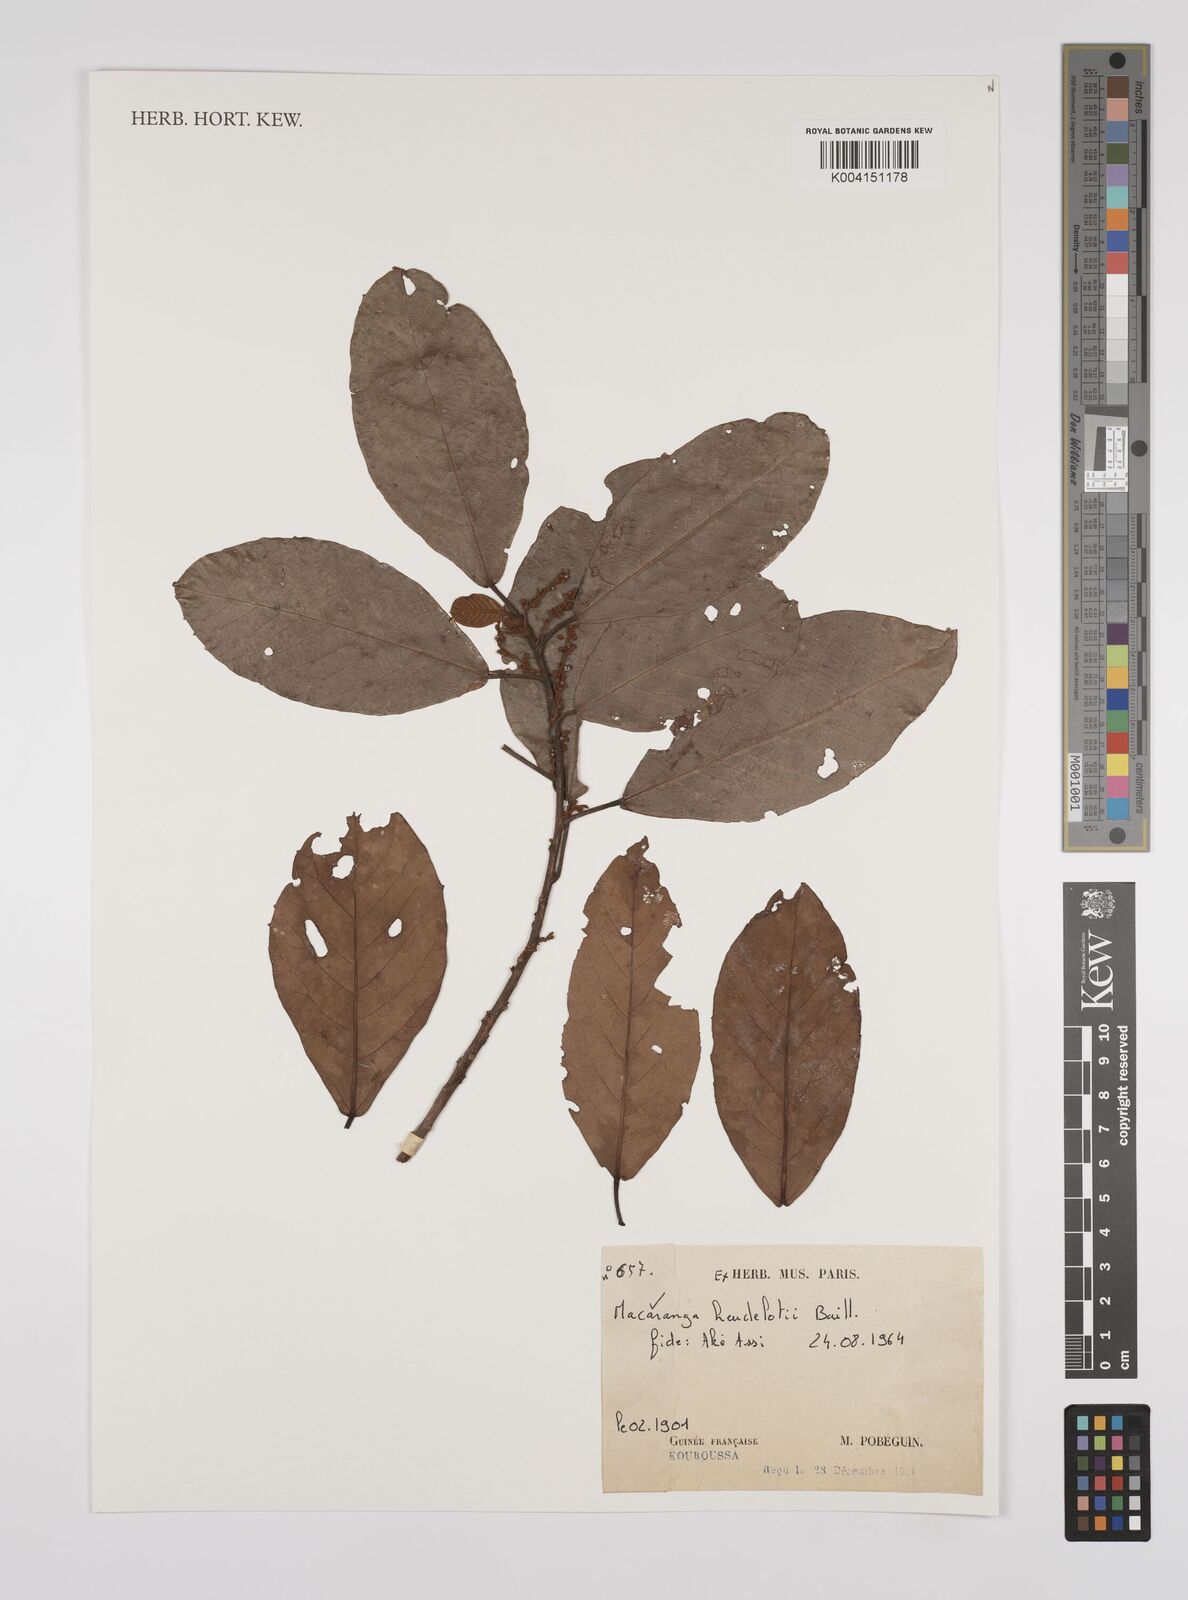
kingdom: Plantae
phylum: Tracheophyta
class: Magnoliopsida
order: Malpighiales
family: Euphorbiaceae
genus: Macaranga
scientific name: Macaranga heudelotii
